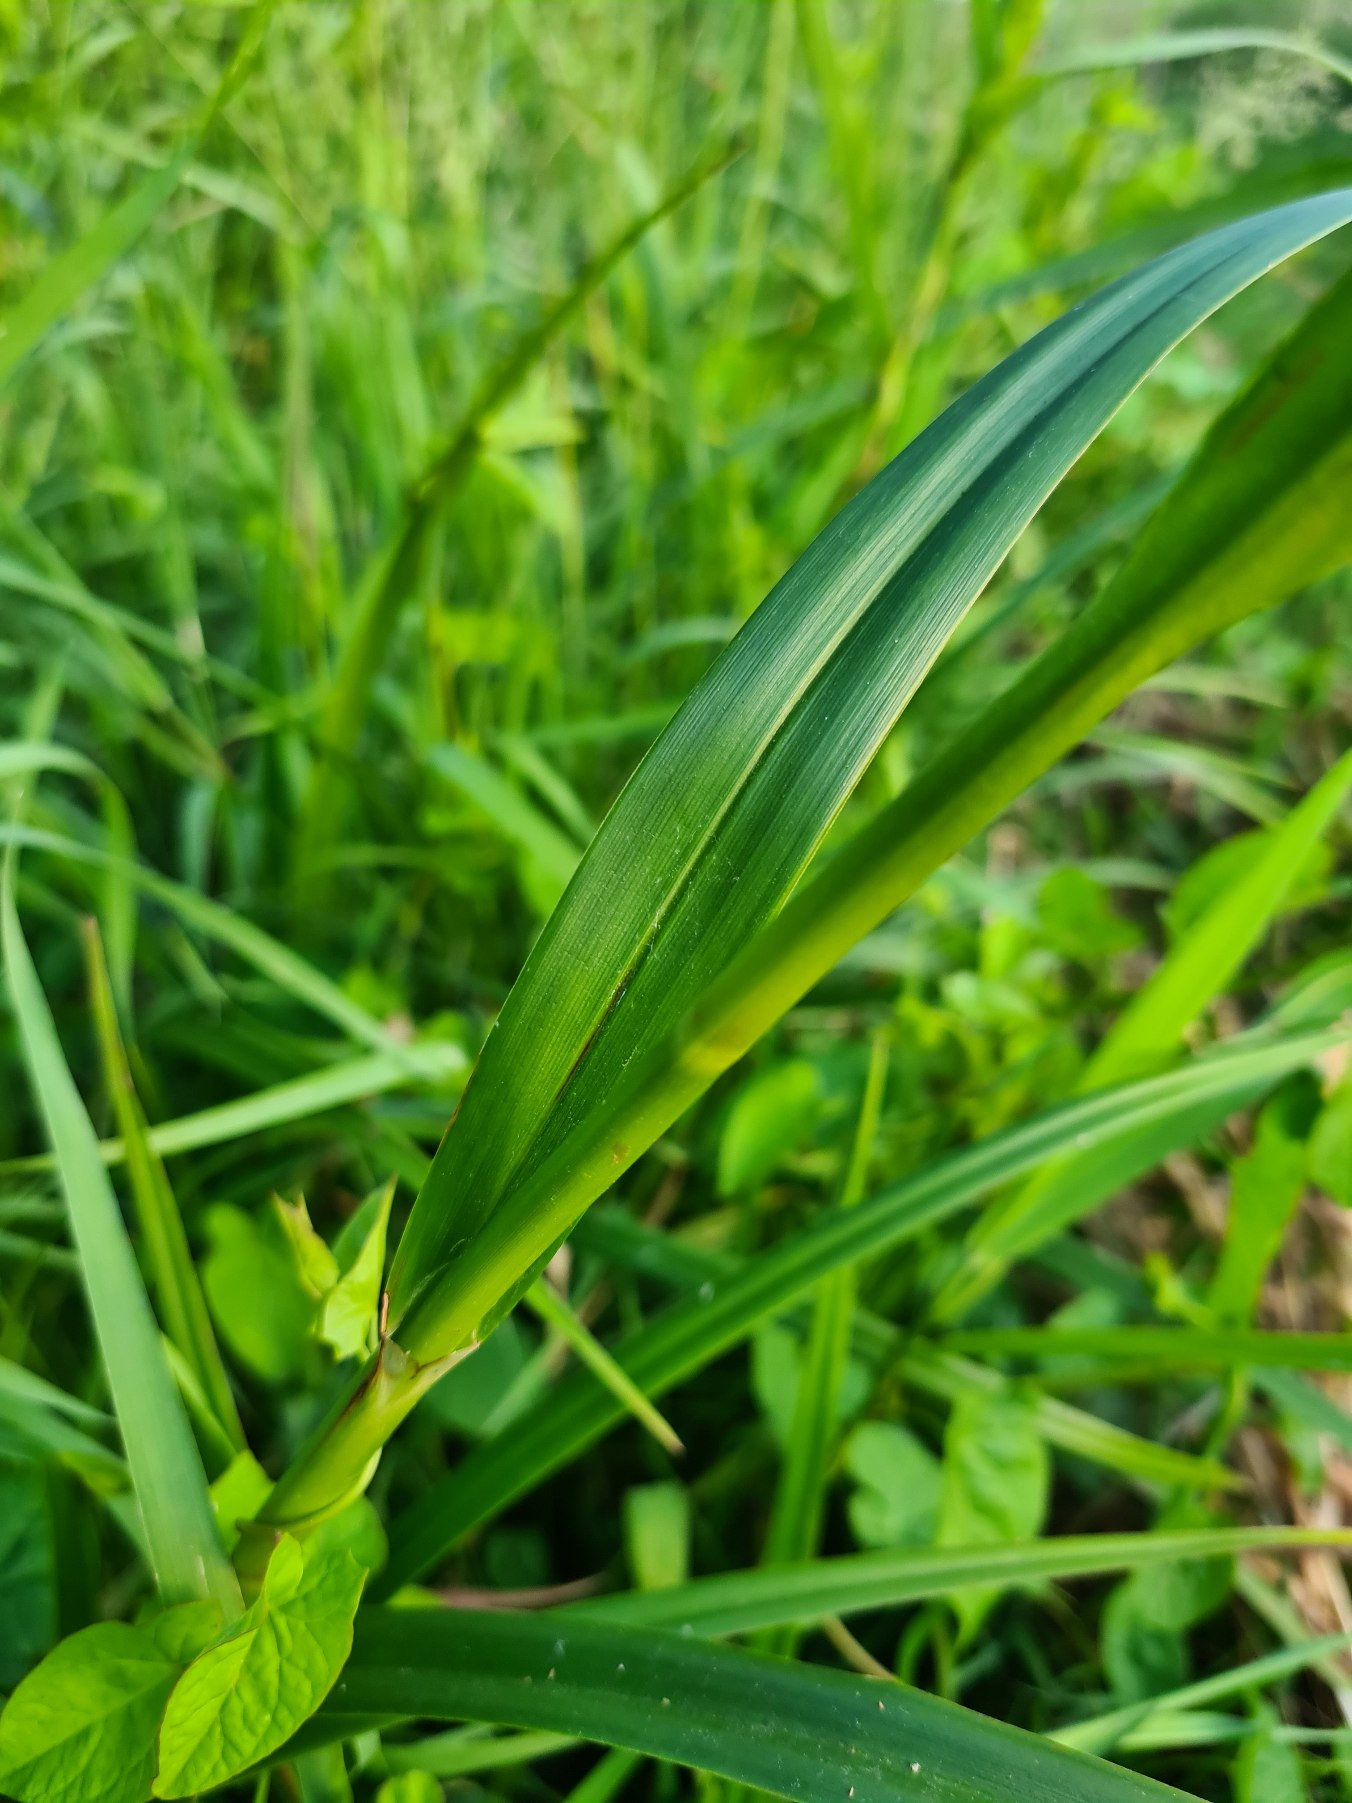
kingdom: Plantae
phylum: Tracheophyta
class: Liliopsida
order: Poales
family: Cyperaceae
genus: Scirpus
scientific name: Scirpus sylvaticus
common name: Skov-kogleaks
